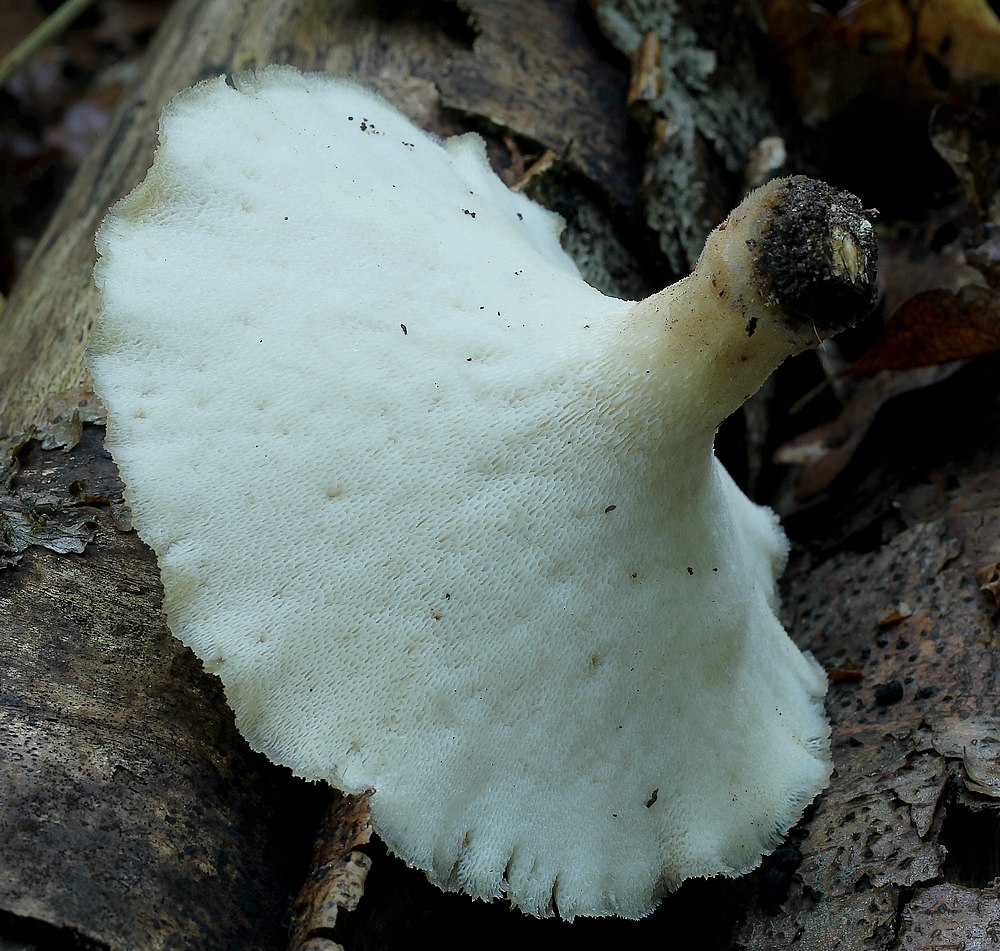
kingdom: Fungi
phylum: Basidiomycota
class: Agaricomycetes
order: Polyporales
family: Polyporaceae
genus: Polyporus
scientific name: Polyporus tuberaster
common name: knoldet stilkporesvamp
